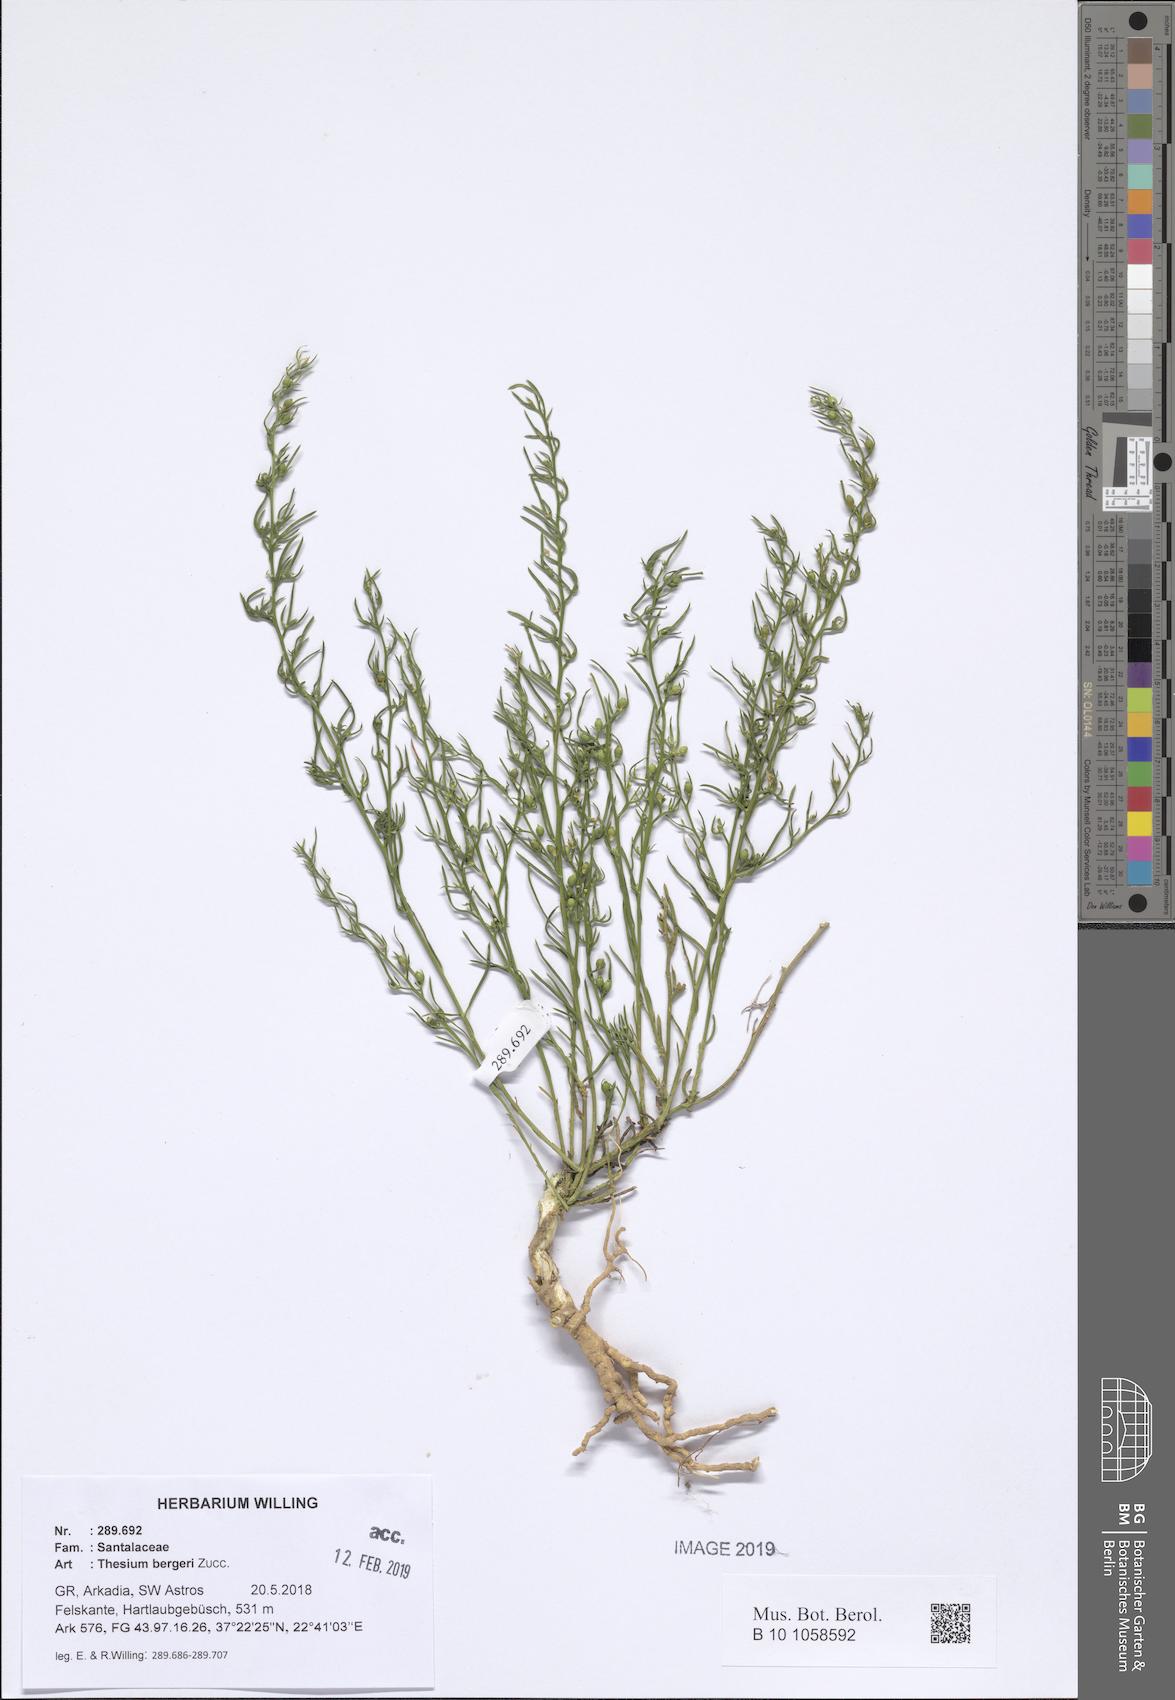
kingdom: Plantae
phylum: Tracheophyta
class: Magnoliopsida
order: Santalales
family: Thesiaceae
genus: Thesium
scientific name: Thesium bergeri
